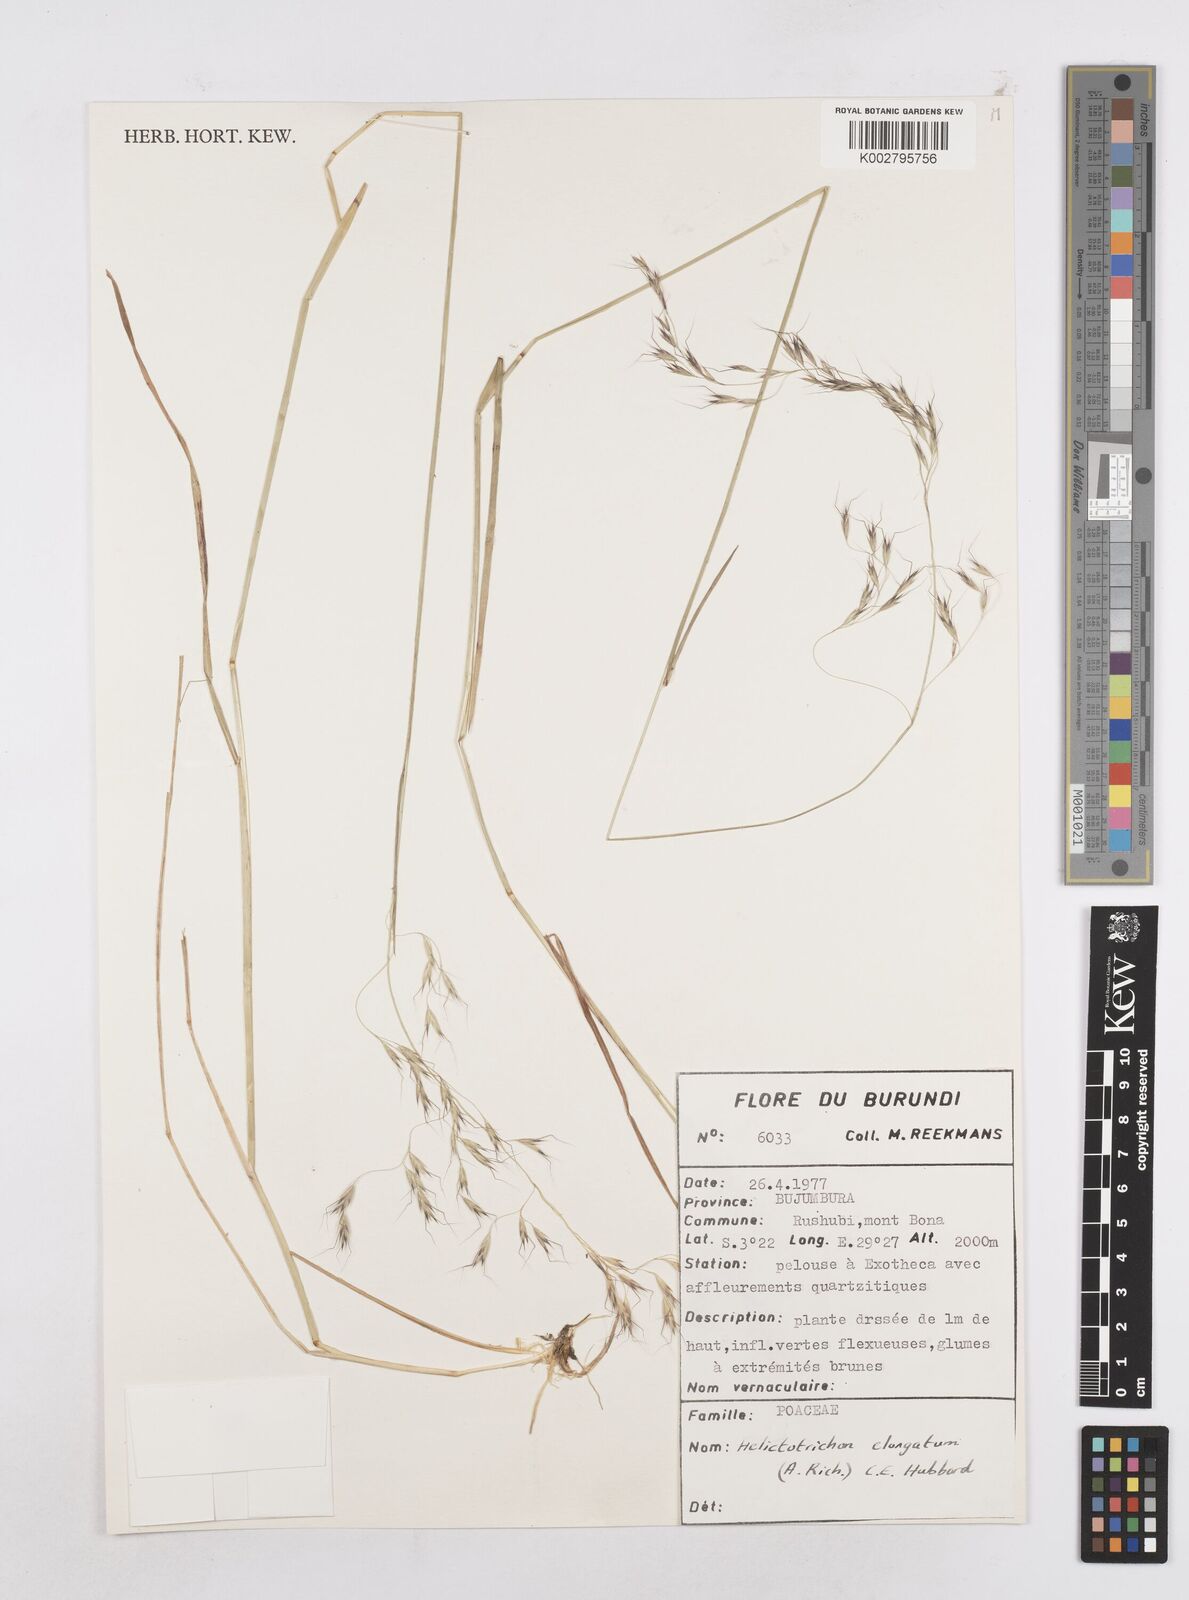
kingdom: Plantae
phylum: Tracheophyta
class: Liliopsida
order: Poales
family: Poaceae
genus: Trisetopsis
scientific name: Trisetopsis elongata
